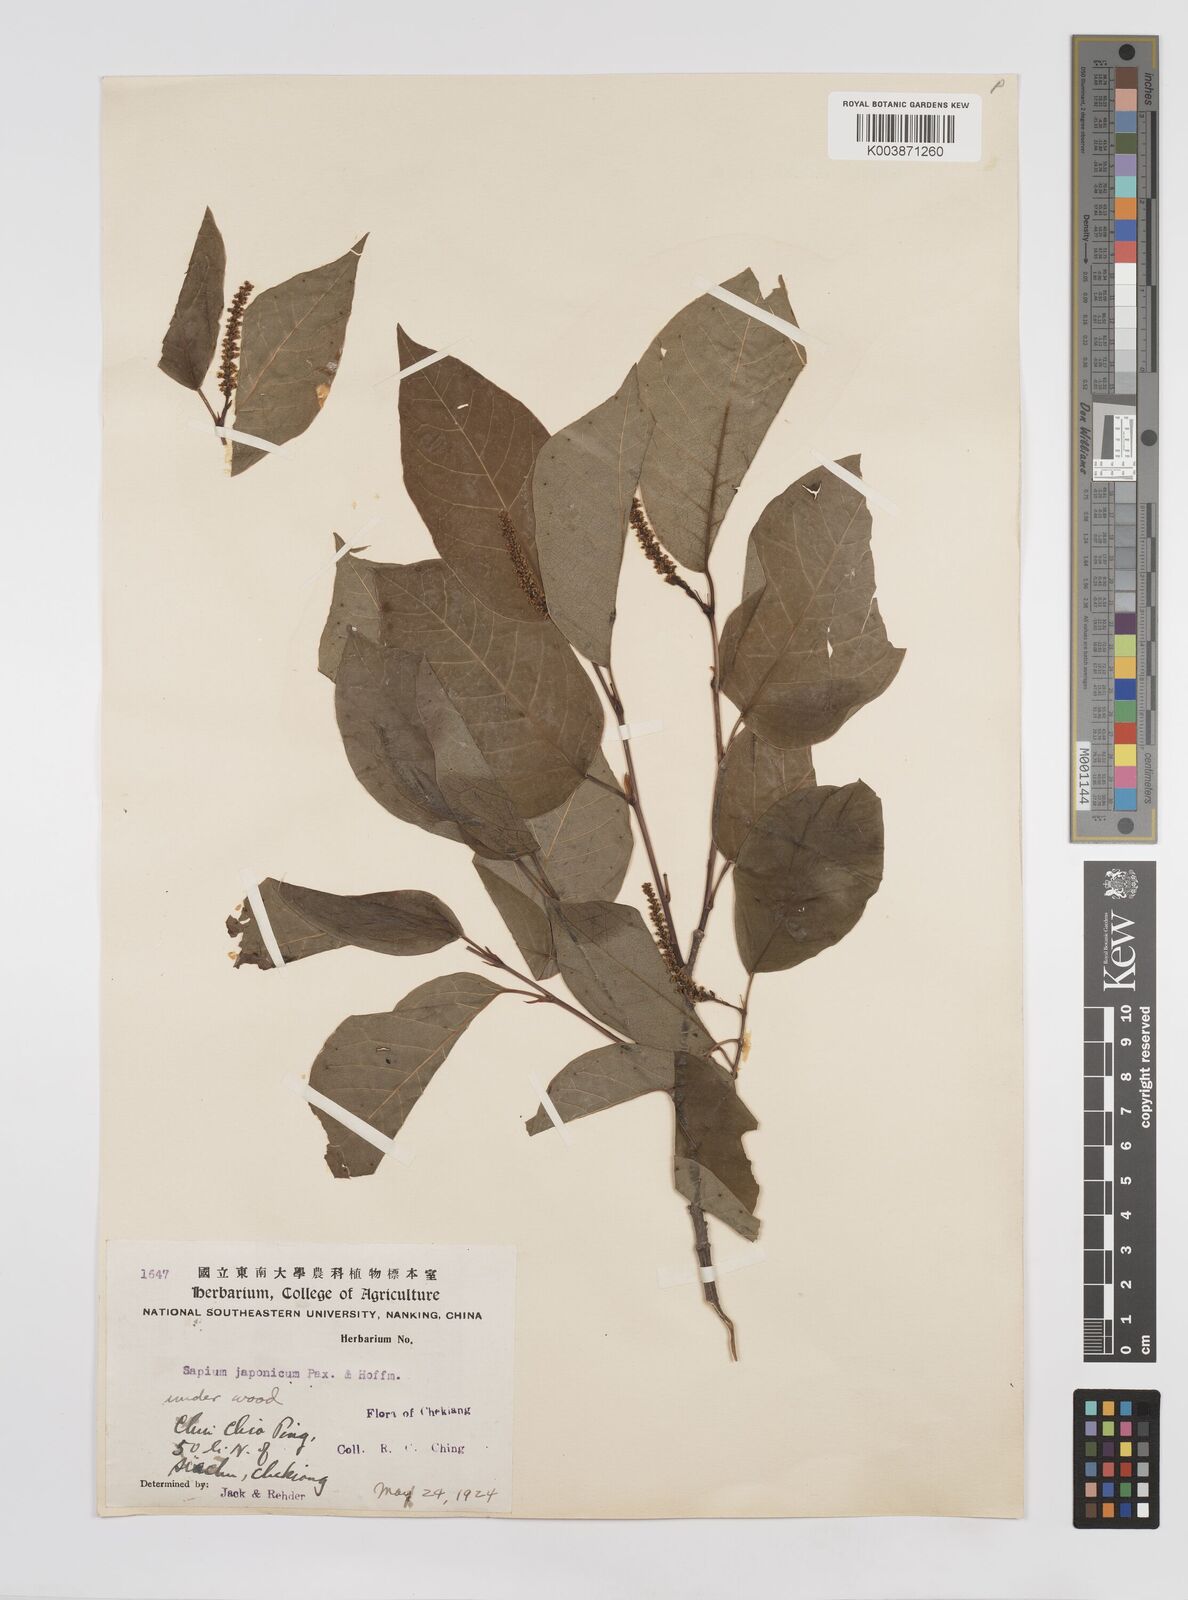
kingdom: Plantae
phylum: Tracheophyta
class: Magnoliopsida
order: Malpighiales
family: Euphorbiaceae
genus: Neoshirakia
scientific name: Neoshirakia japonica
